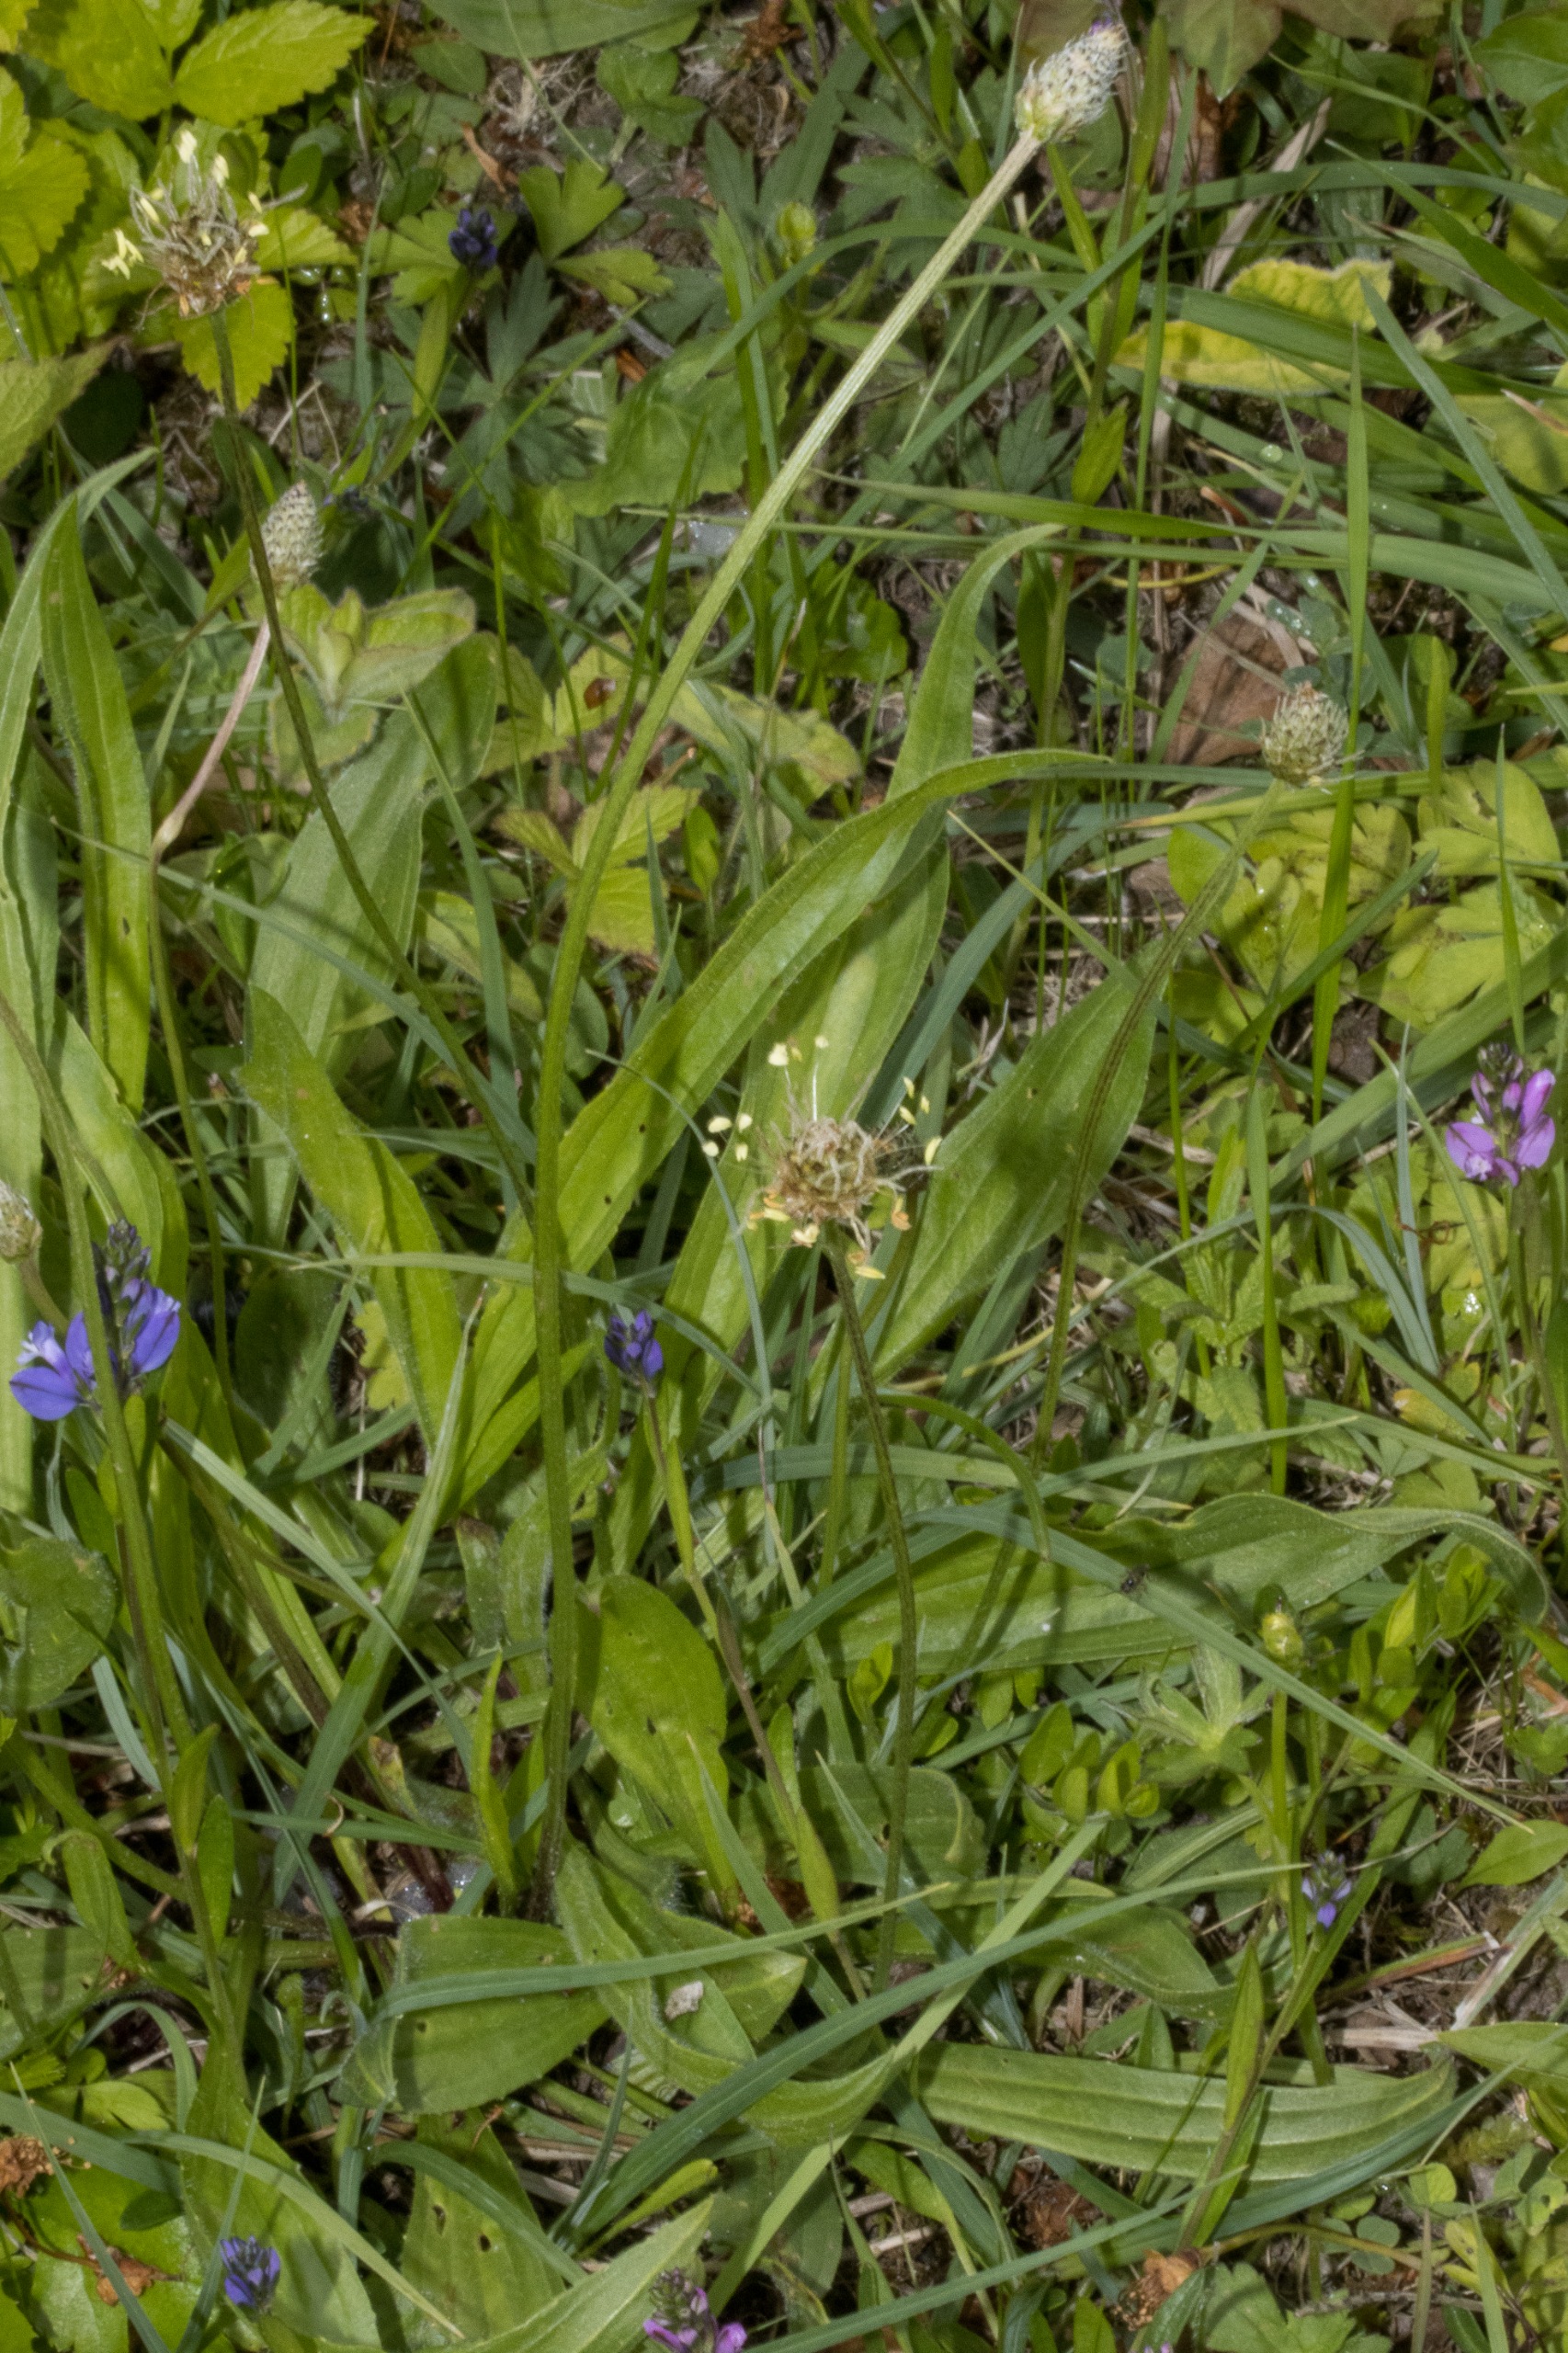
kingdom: Plantae
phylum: Tracheophyta
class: Magnoliopsida
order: Lamiales
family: Plantaginaceae
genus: Plantago
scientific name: Plantago lanceolata
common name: Lancet-vejbred
